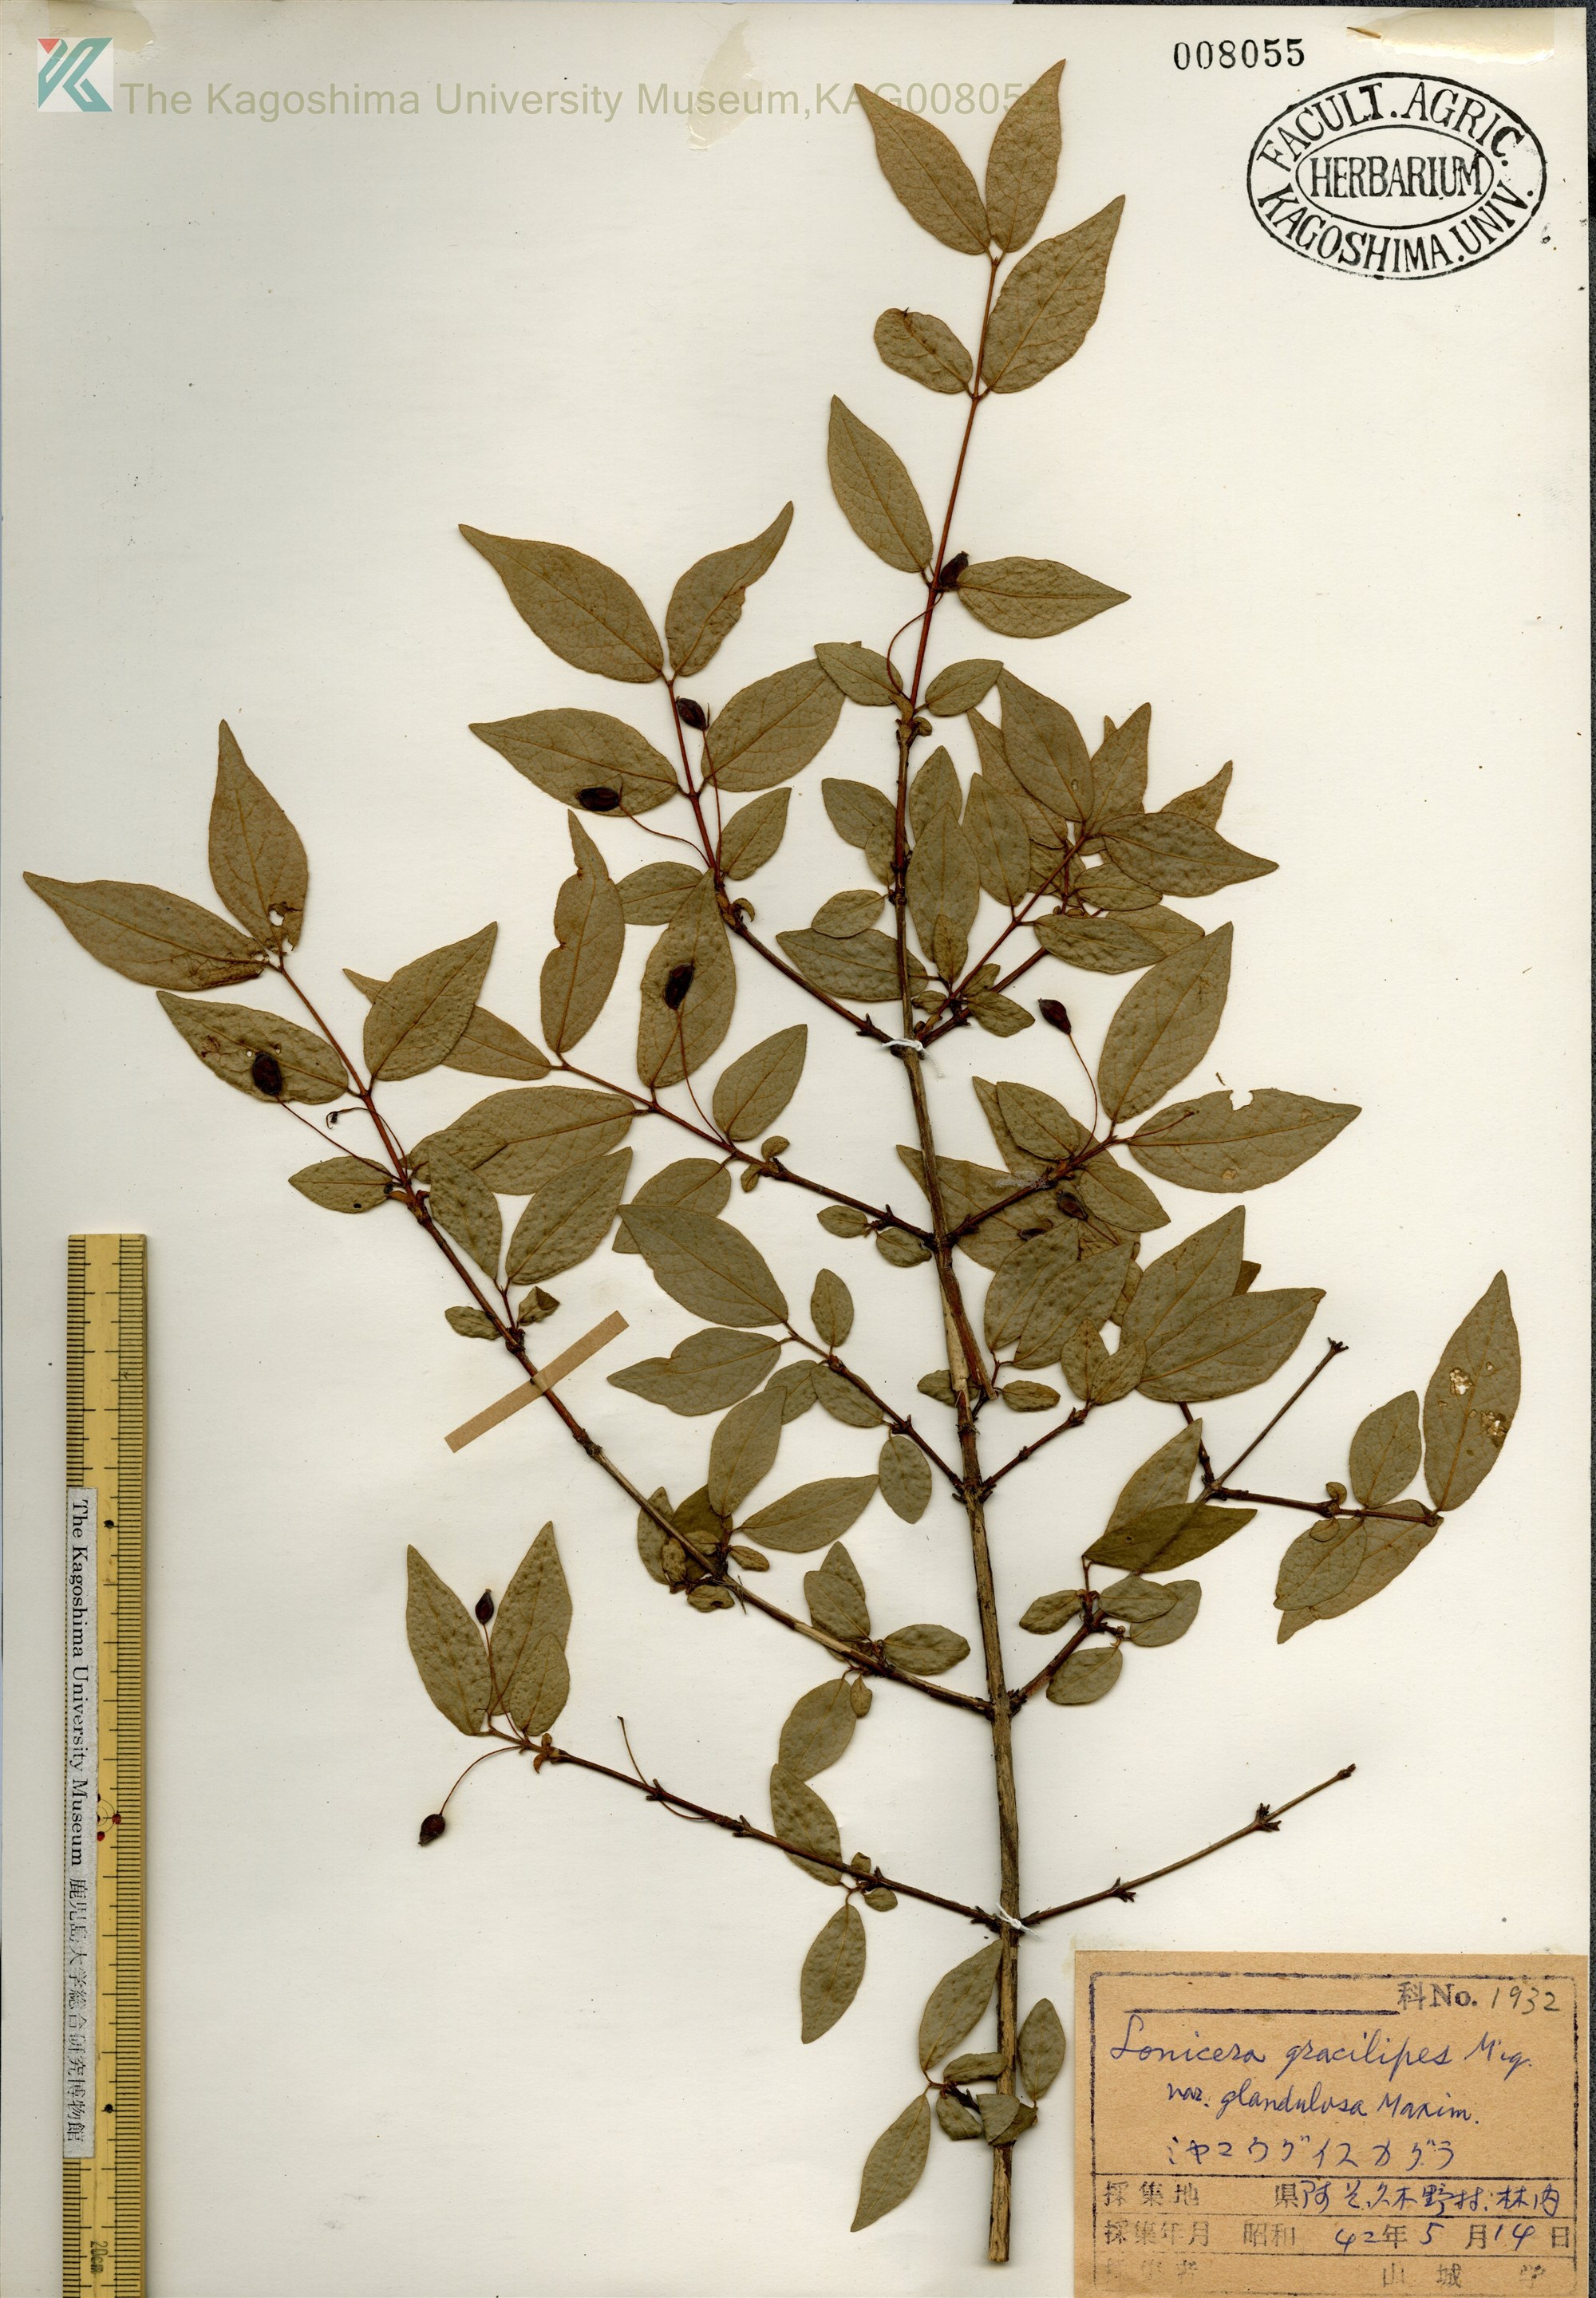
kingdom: Plantae
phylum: Tracheophyta
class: Magnoliopsida
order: Dipsacales
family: Caprifoliaceae
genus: Lonicera
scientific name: Lonicera gracilipes
